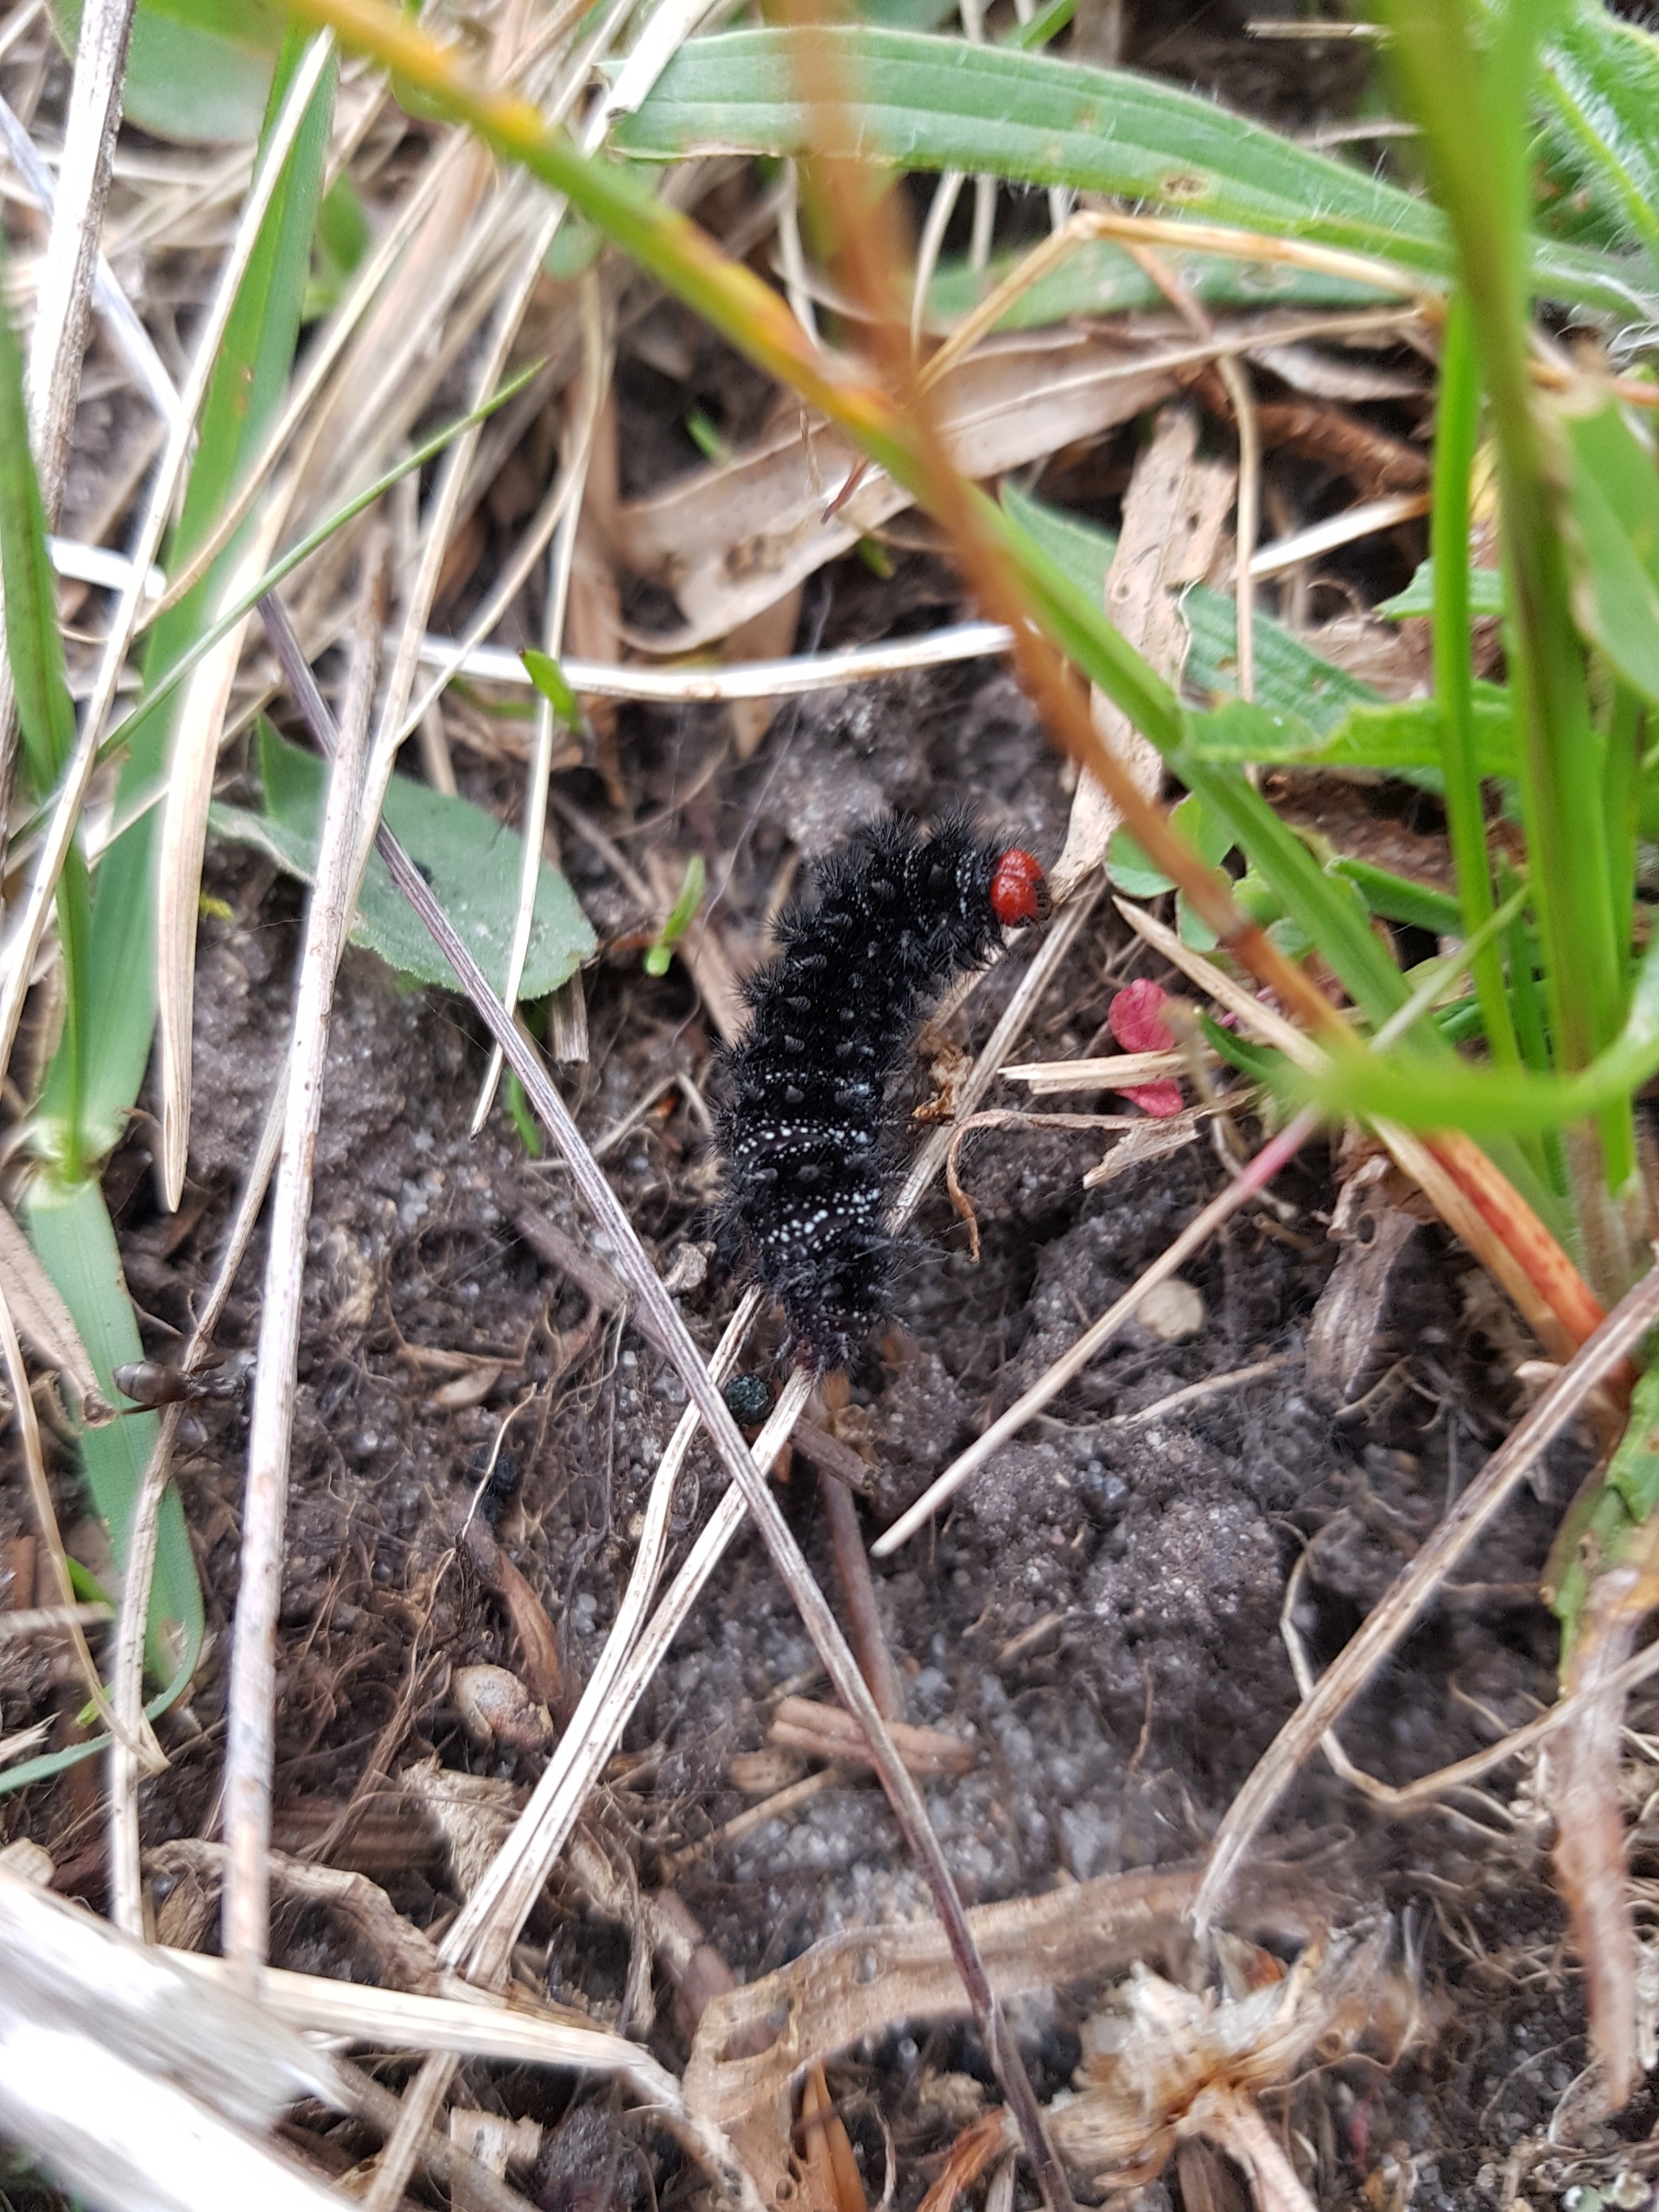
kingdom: Animalia
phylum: Arthropoda
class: Insecta
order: Lepidoptera
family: Nymphalidae
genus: Melitaea
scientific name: Melitaea cinxia
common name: Okkergul pletvinge
